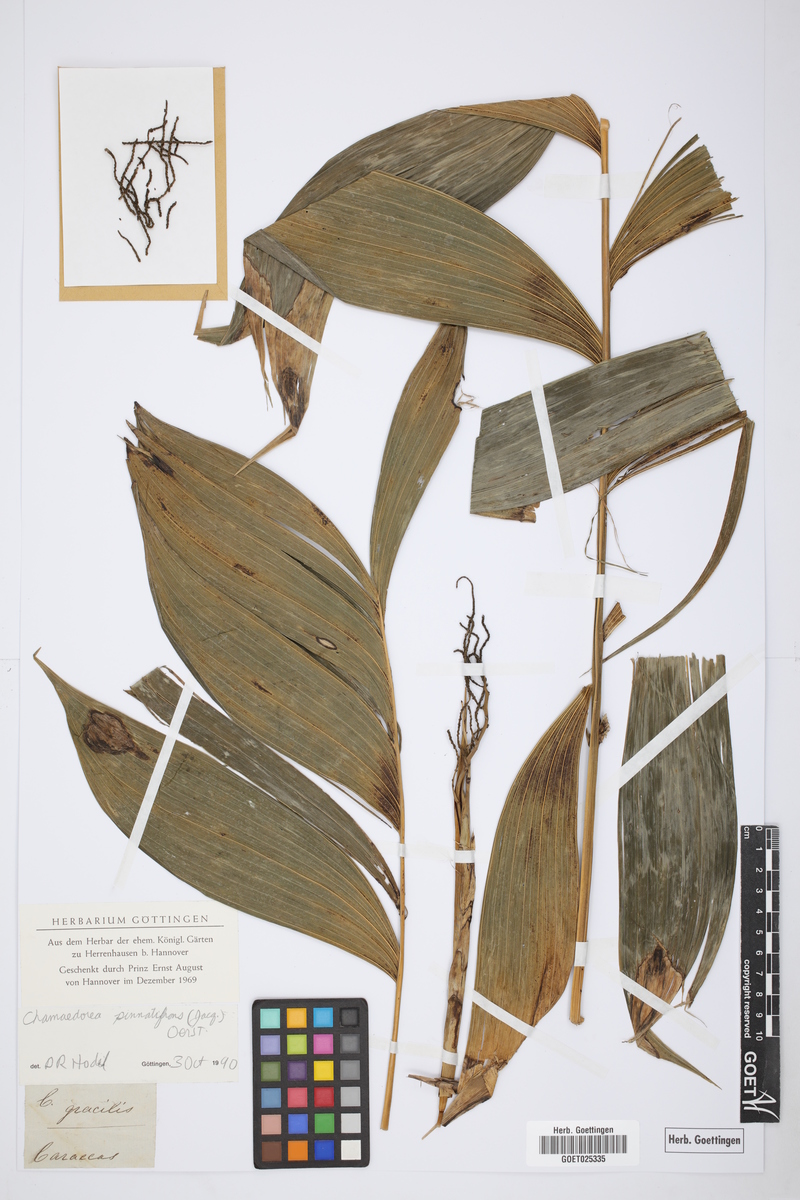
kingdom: Plantae
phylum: Tracheophyta
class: Liliopsida
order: Arecales
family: Arecaceae
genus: Chamaedorea
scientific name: Chamaedorea pinnatifrons
